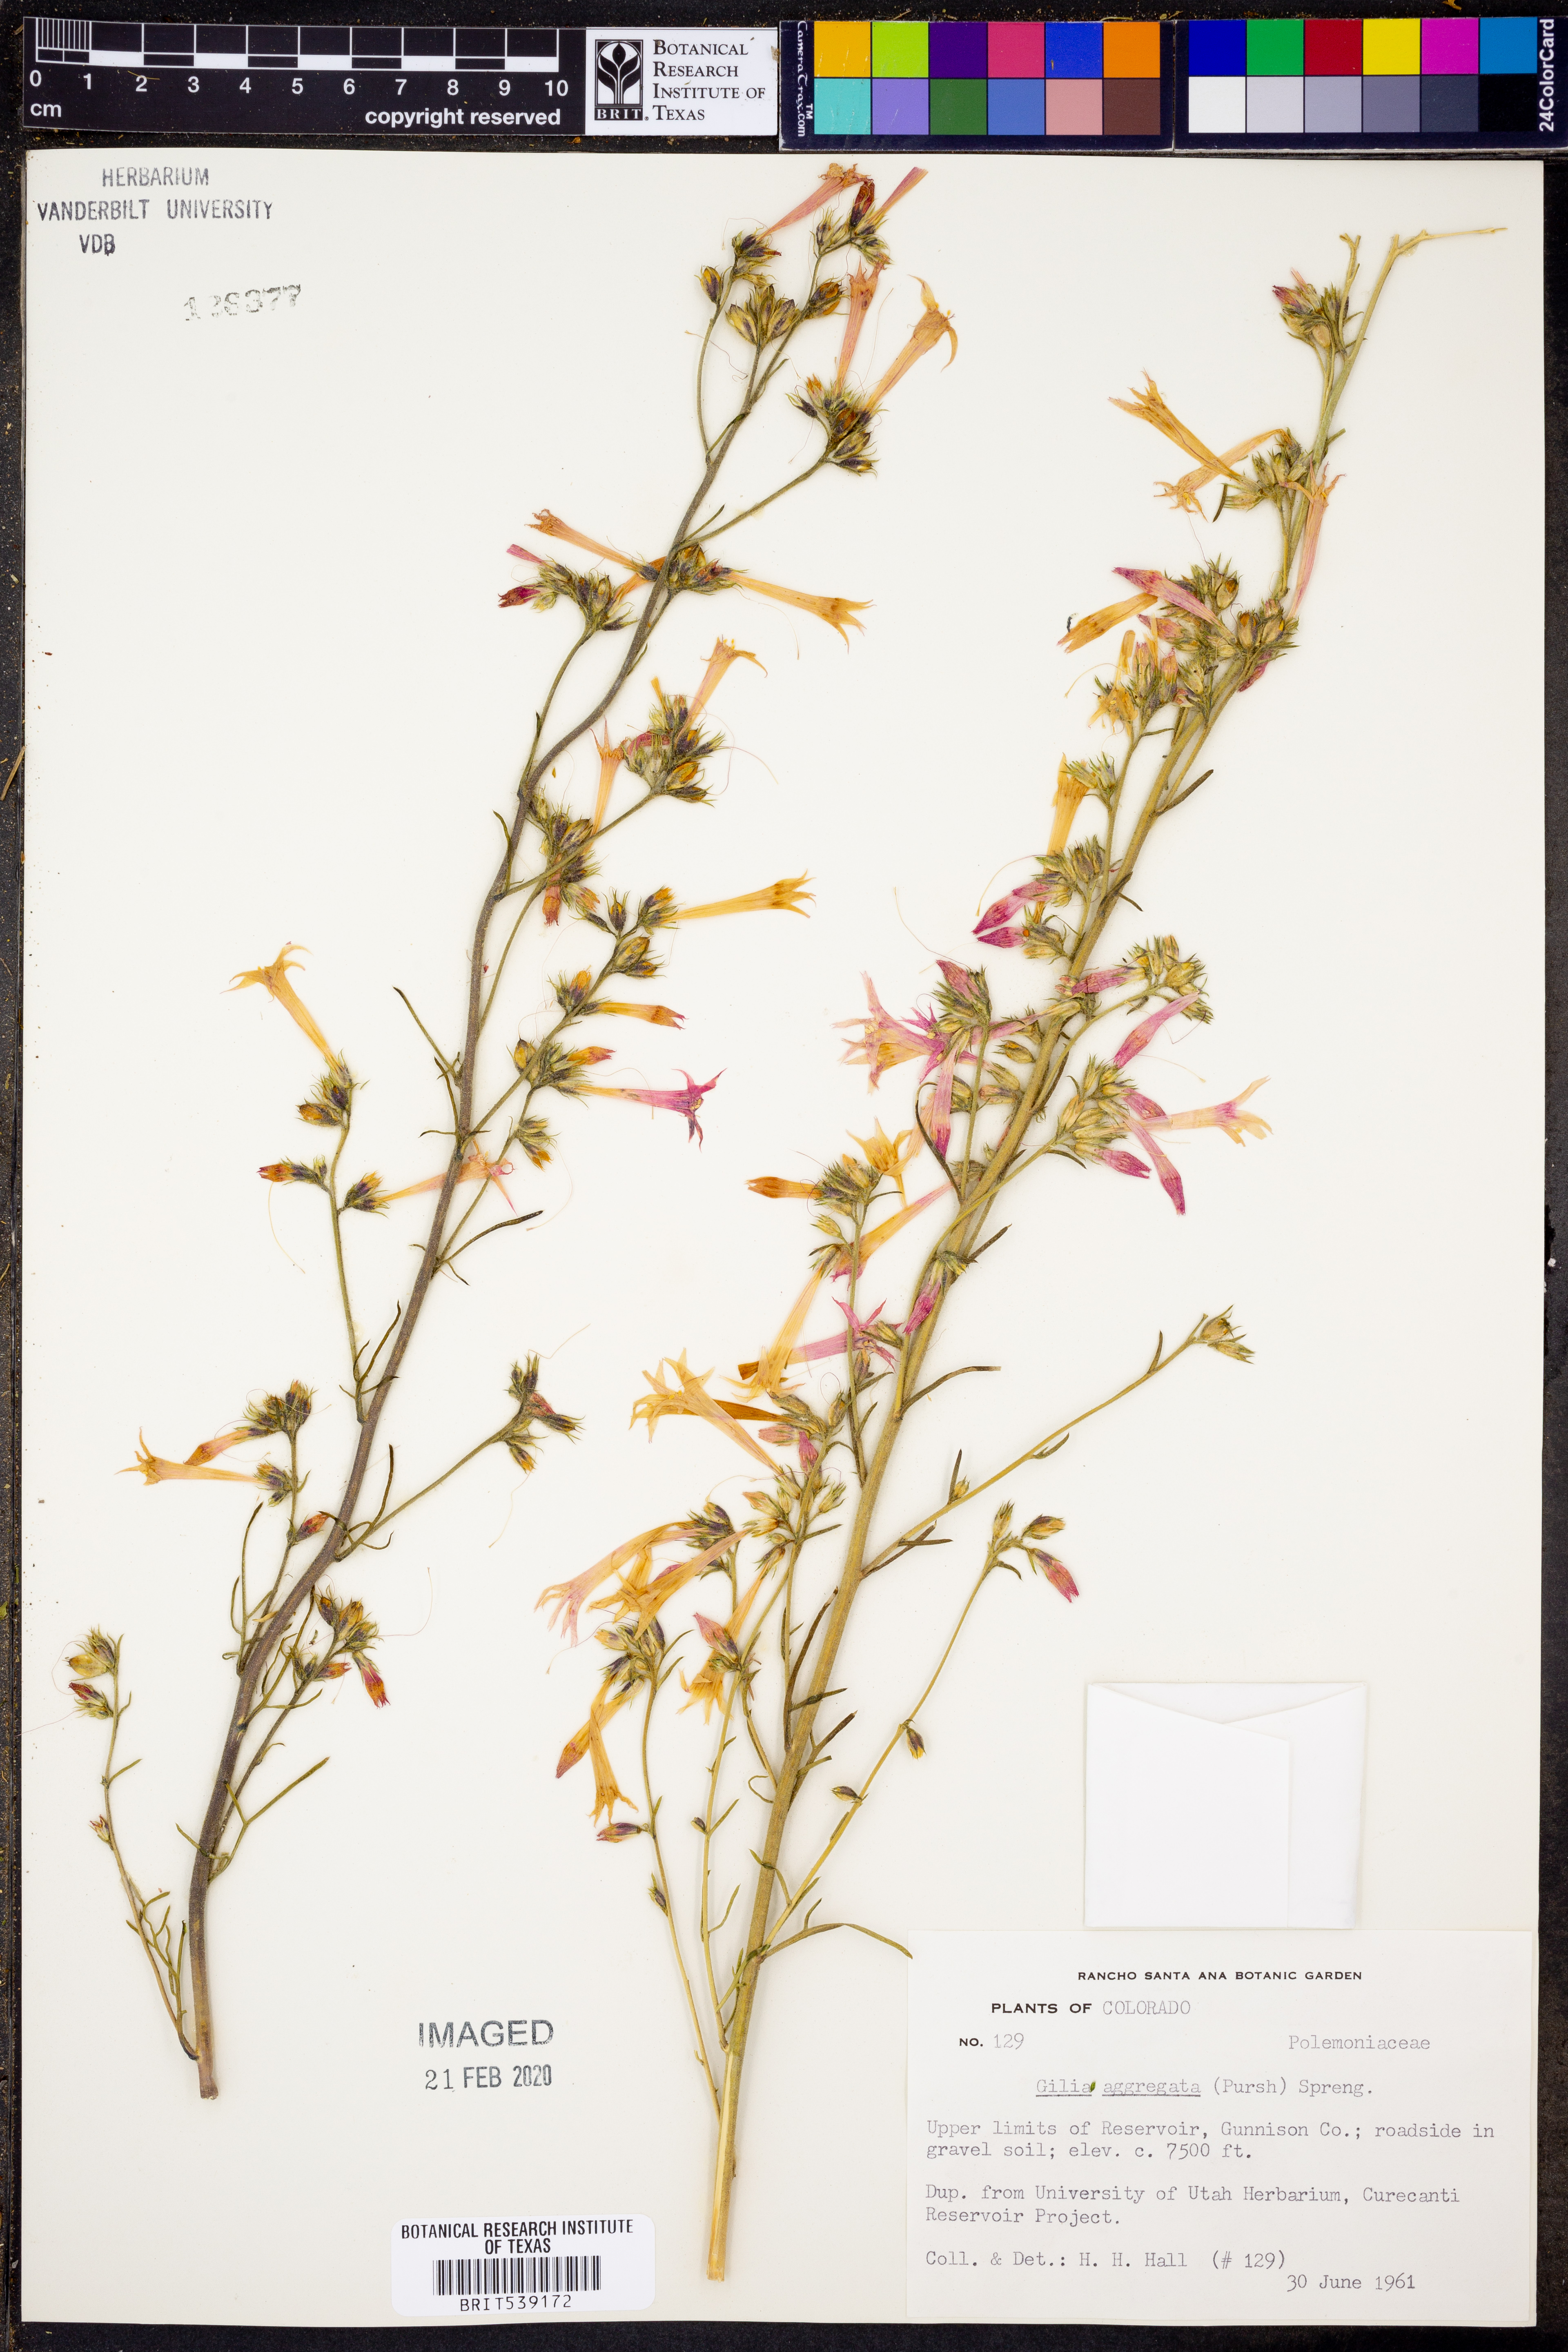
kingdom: Plantae
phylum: Tracheophyta
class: Magnoliopsida
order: Ericales
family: Polemoniaceae
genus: Ipomopsis
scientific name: Ipomopsis aggregata
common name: Scarlet gilia
